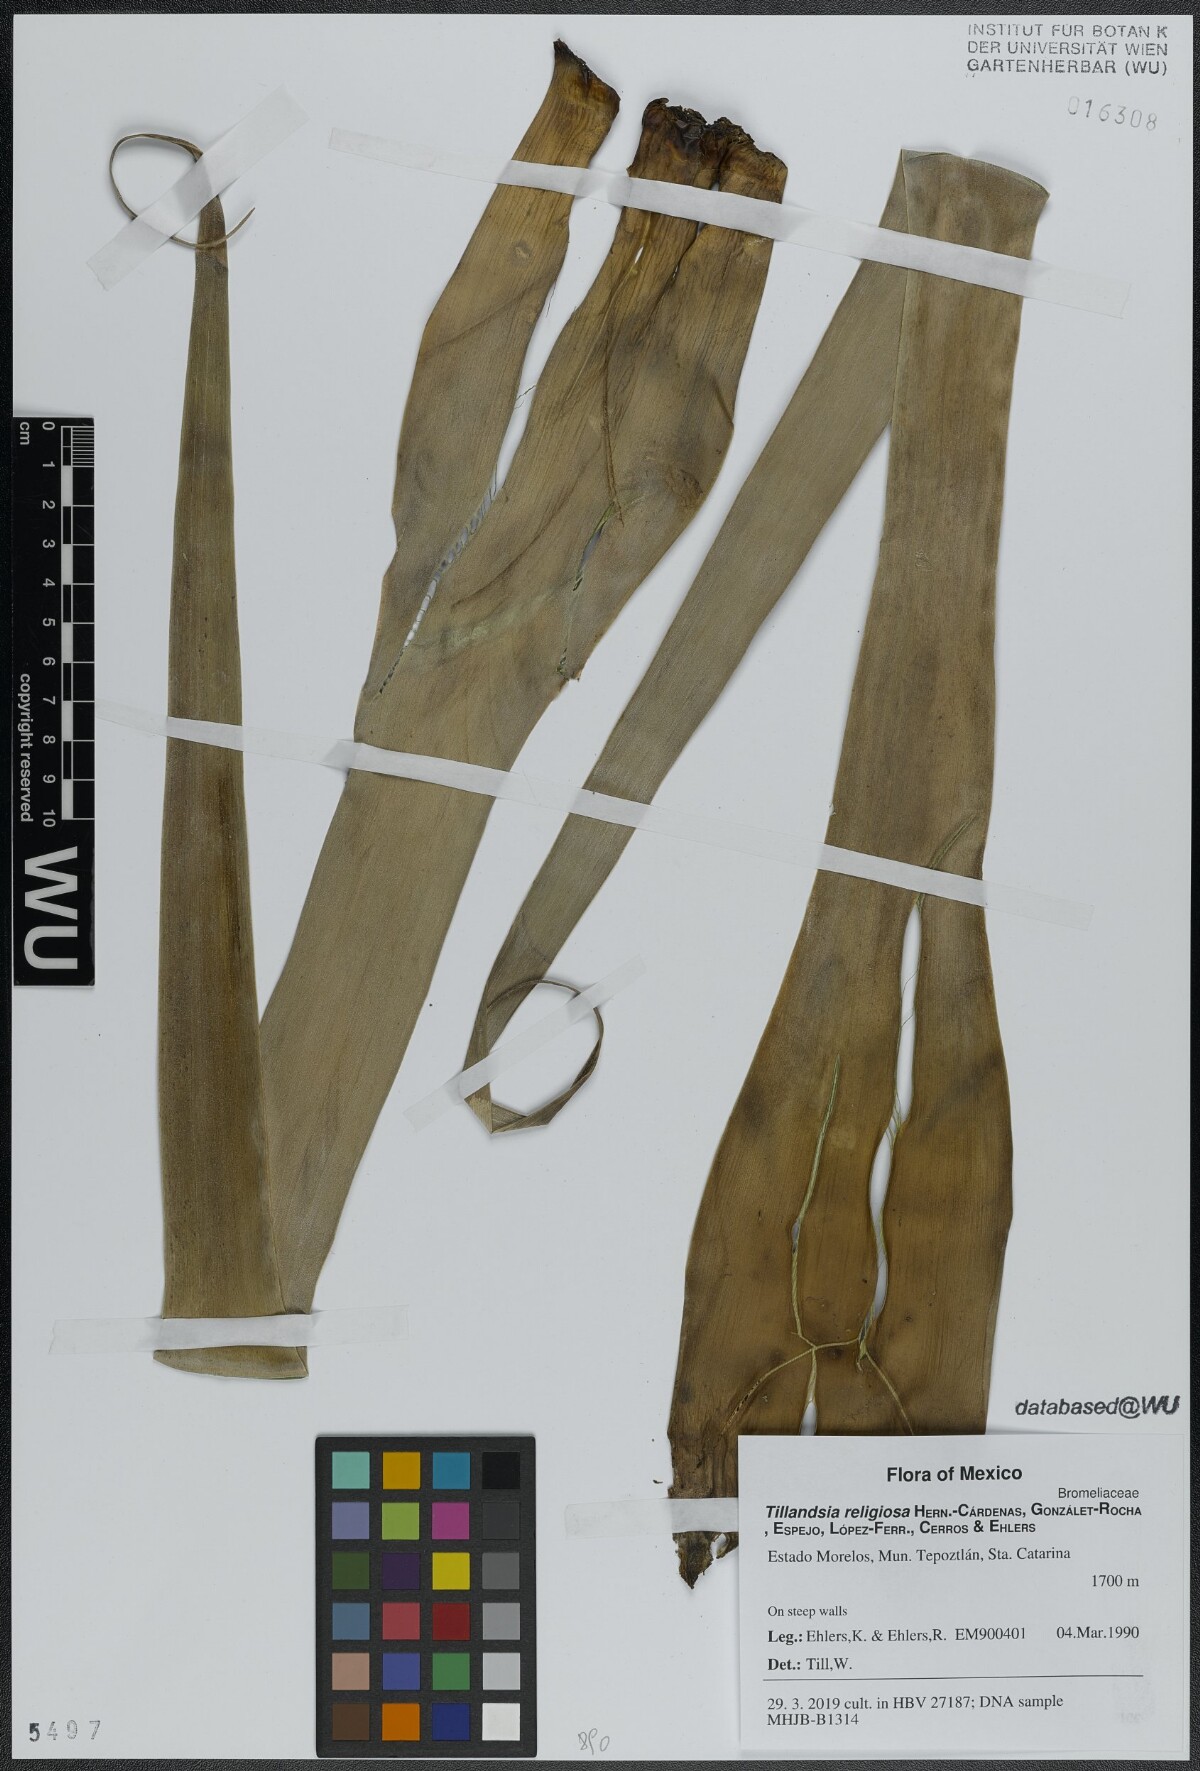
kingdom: Plantae
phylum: Tracheophyta
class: Liliopsida
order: Poales
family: Bromeliaceae
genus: Tillandsia
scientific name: Tillandsia religiosa
